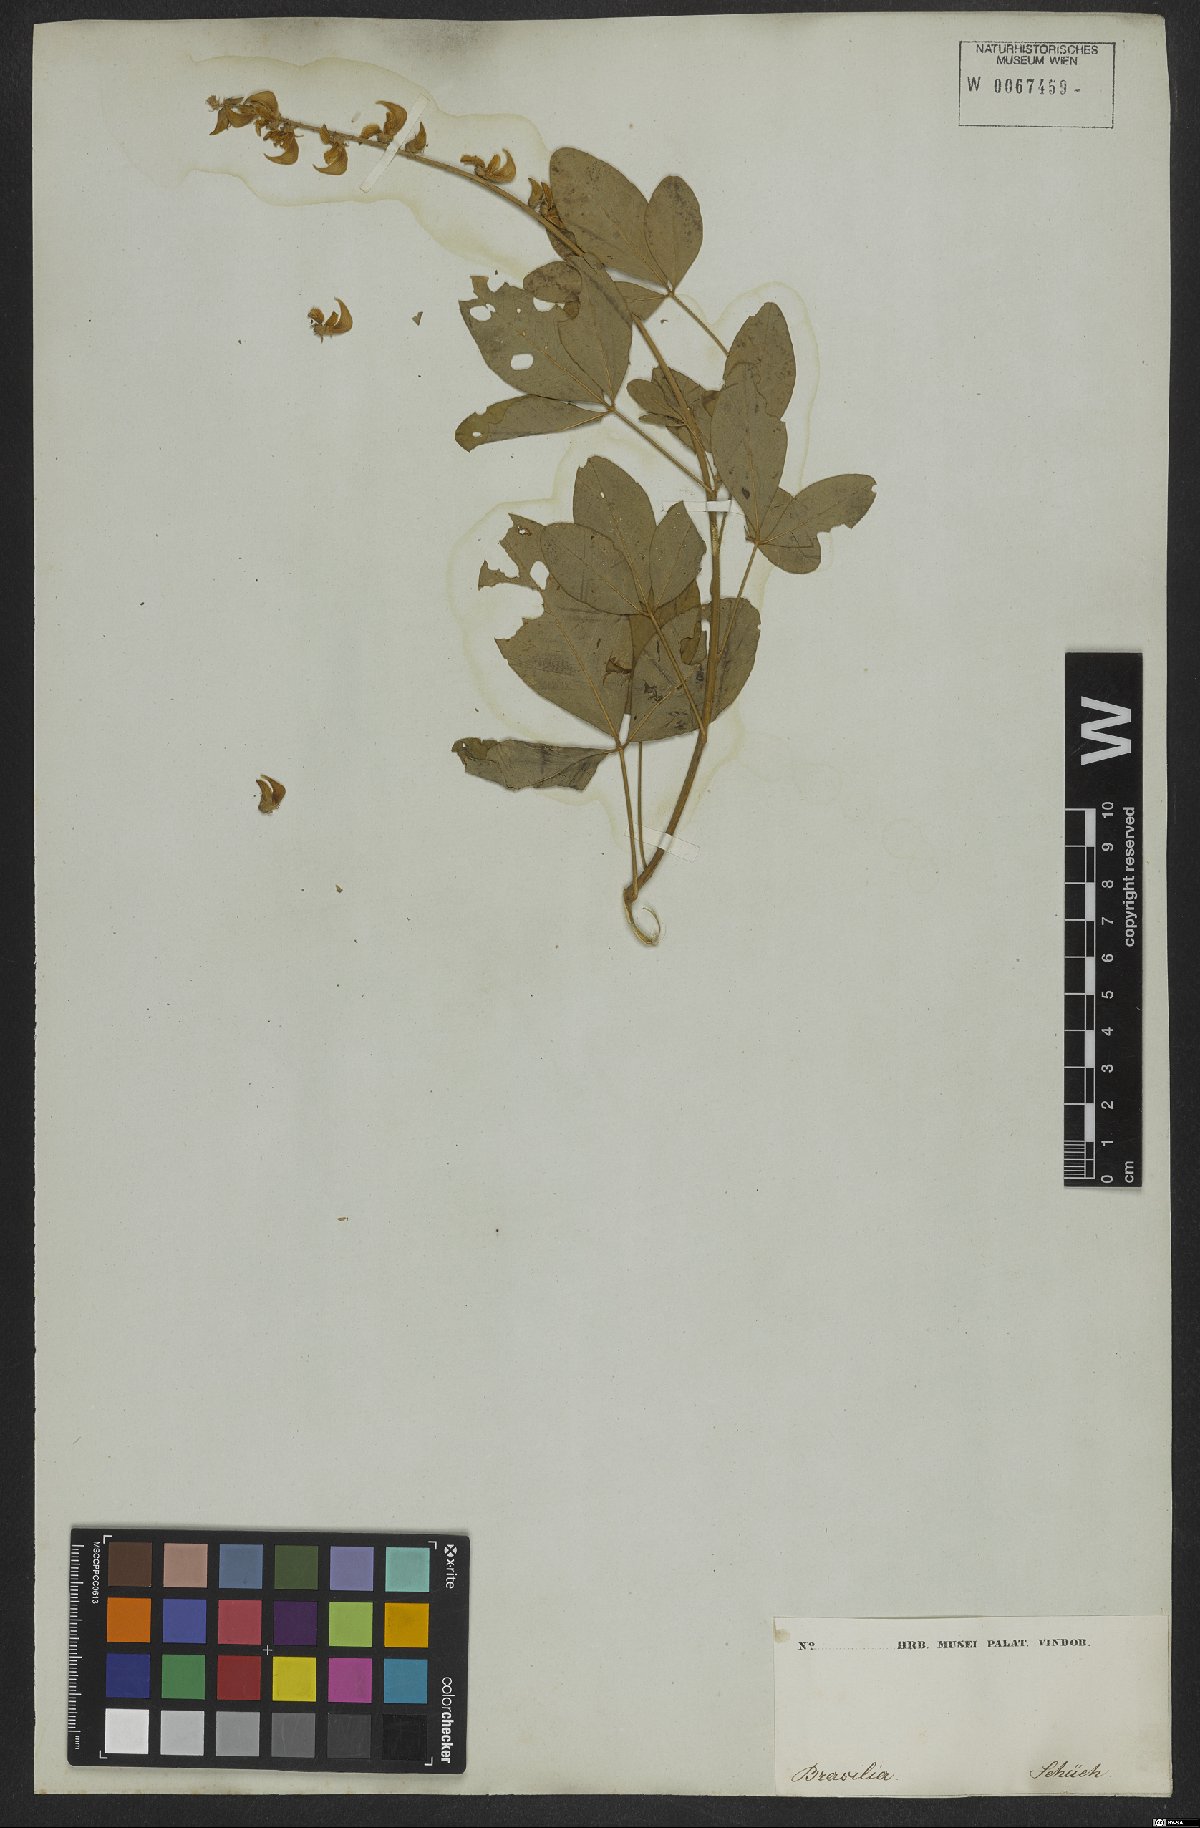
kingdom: Plantae
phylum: Tracheophyta
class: Magnoliopsida
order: Fabales
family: Fabaceae
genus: Crotalaria
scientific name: Crotalaria globifera
